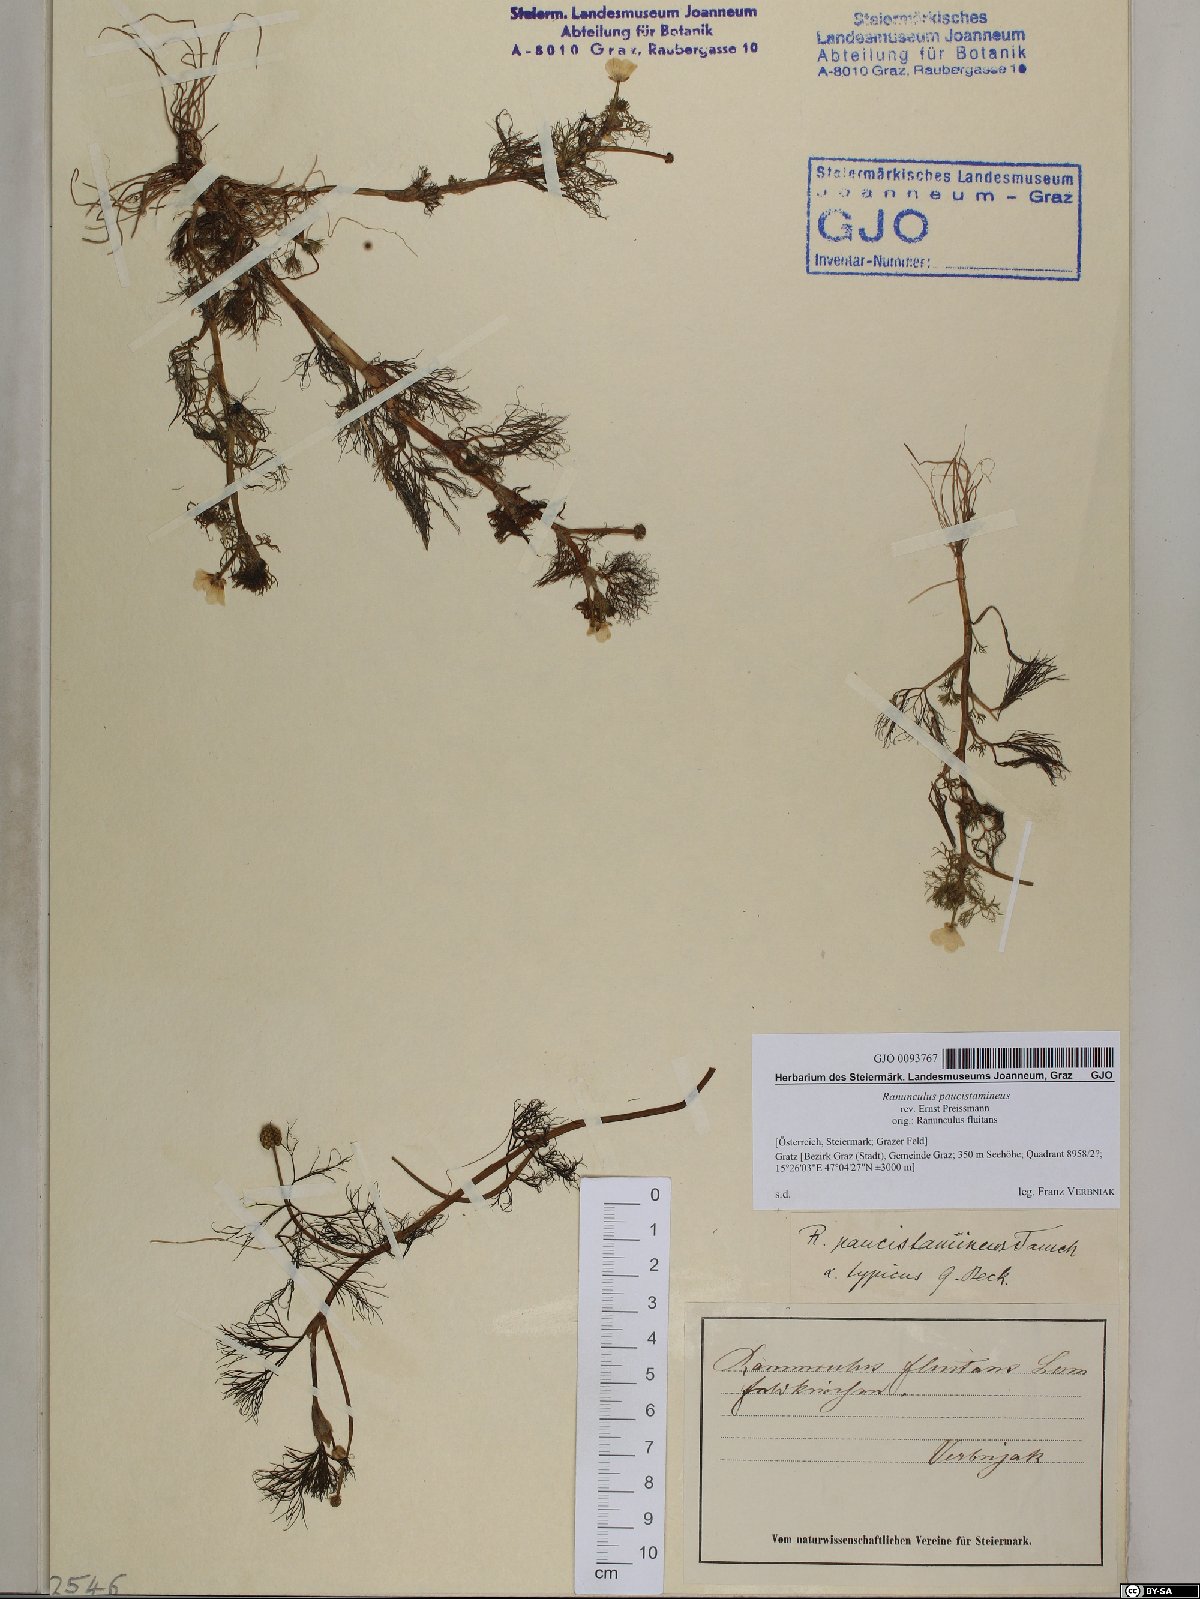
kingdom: Plantae
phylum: Tracheophyta
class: Magnoliopsida
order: Ranunculales
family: Ranunculaceae
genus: Ranunculus
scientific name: Ranunculus
